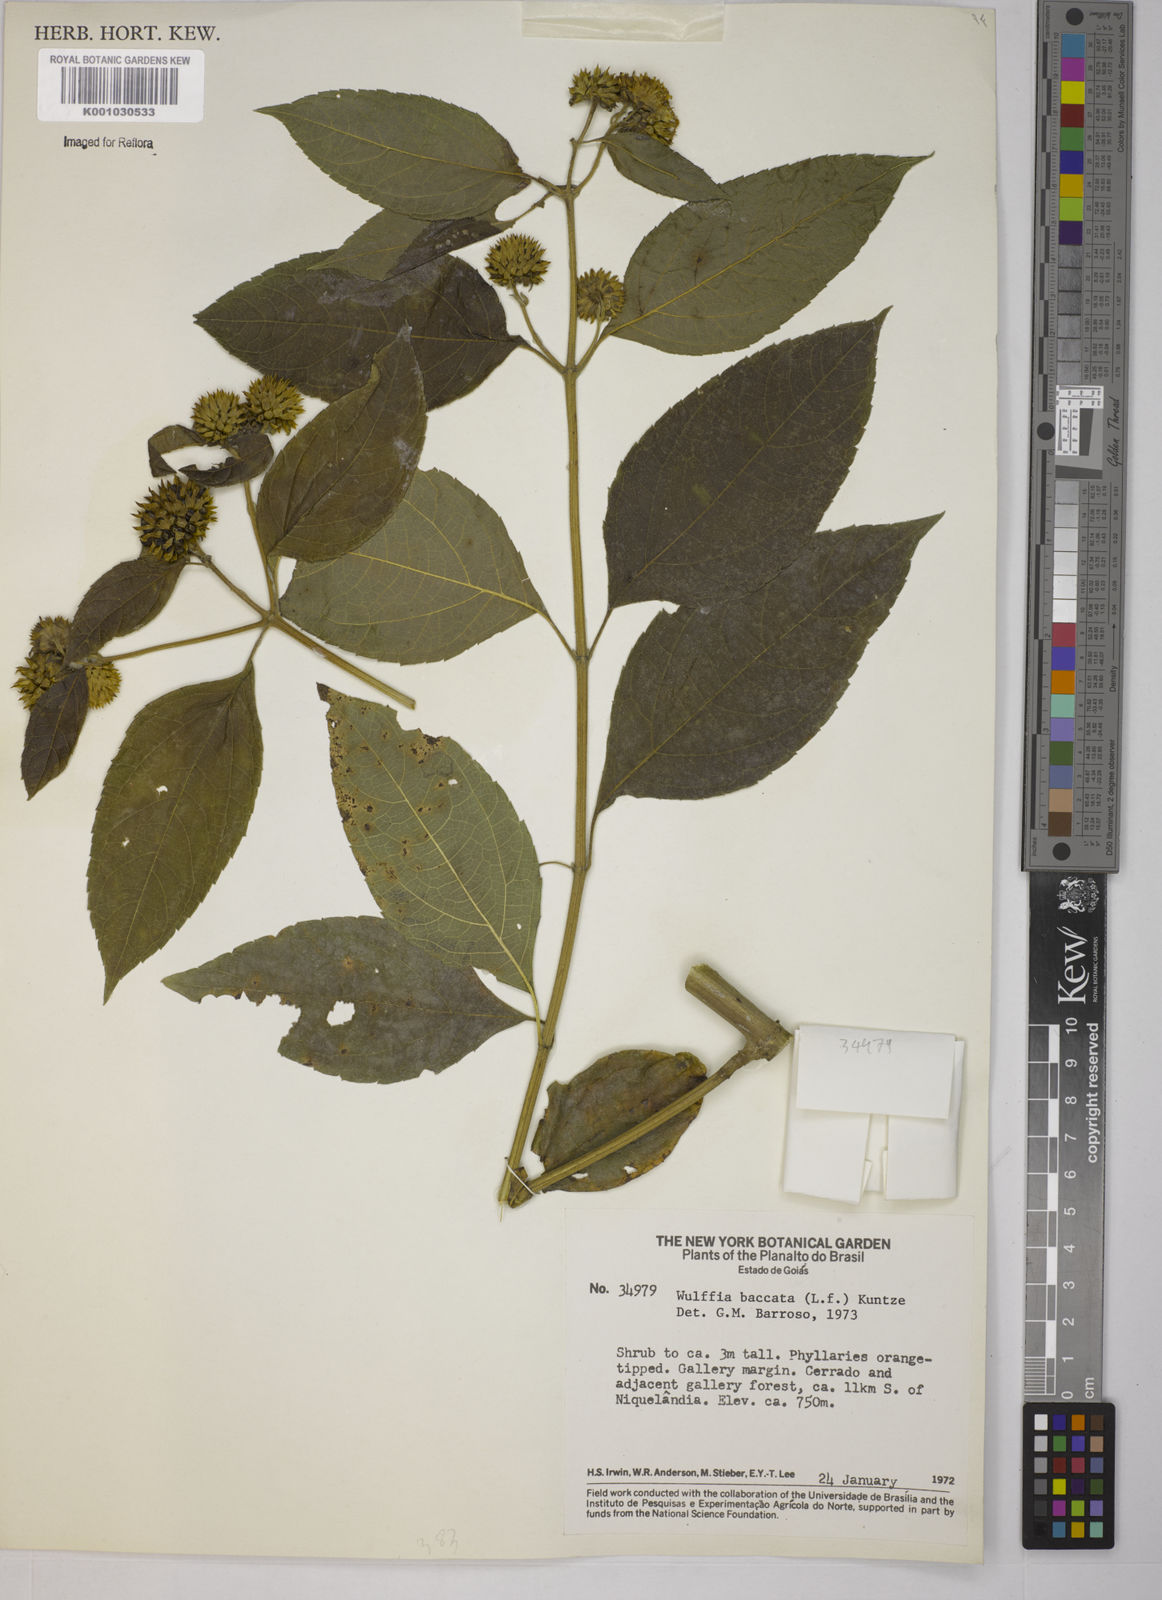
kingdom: Plantae
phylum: Tracheophyta
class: Magnoliopsida
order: Asterales
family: Asteraceae
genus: Tilesia
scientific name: Tilesia baccata
